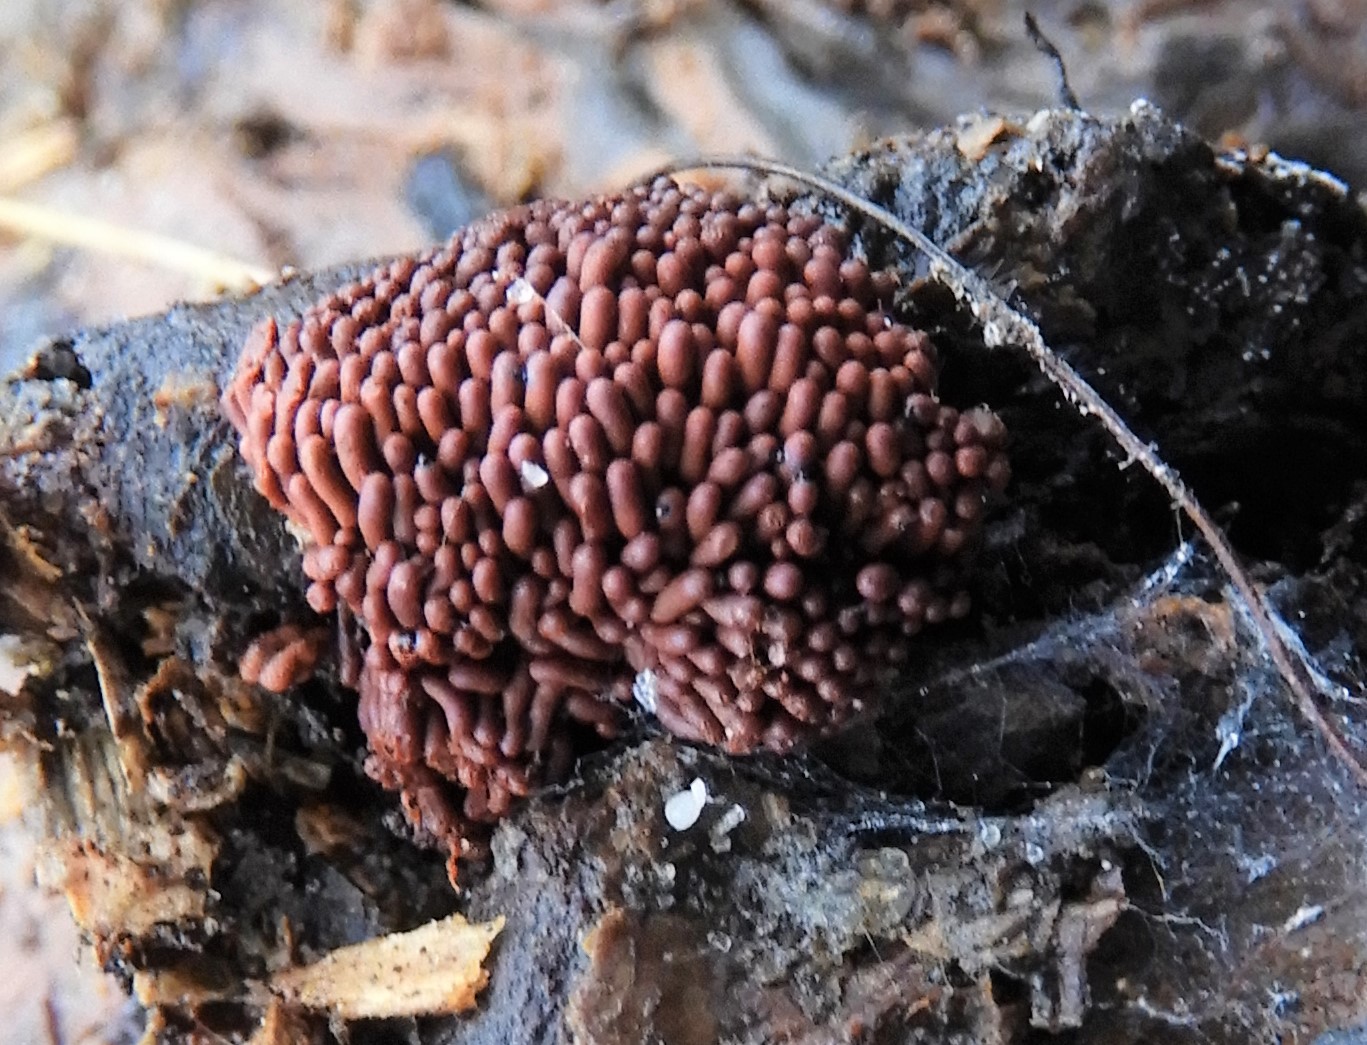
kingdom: Protozoa
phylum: Amoebozoa
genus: Arcyria
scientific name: Arcyria oerstedtii
